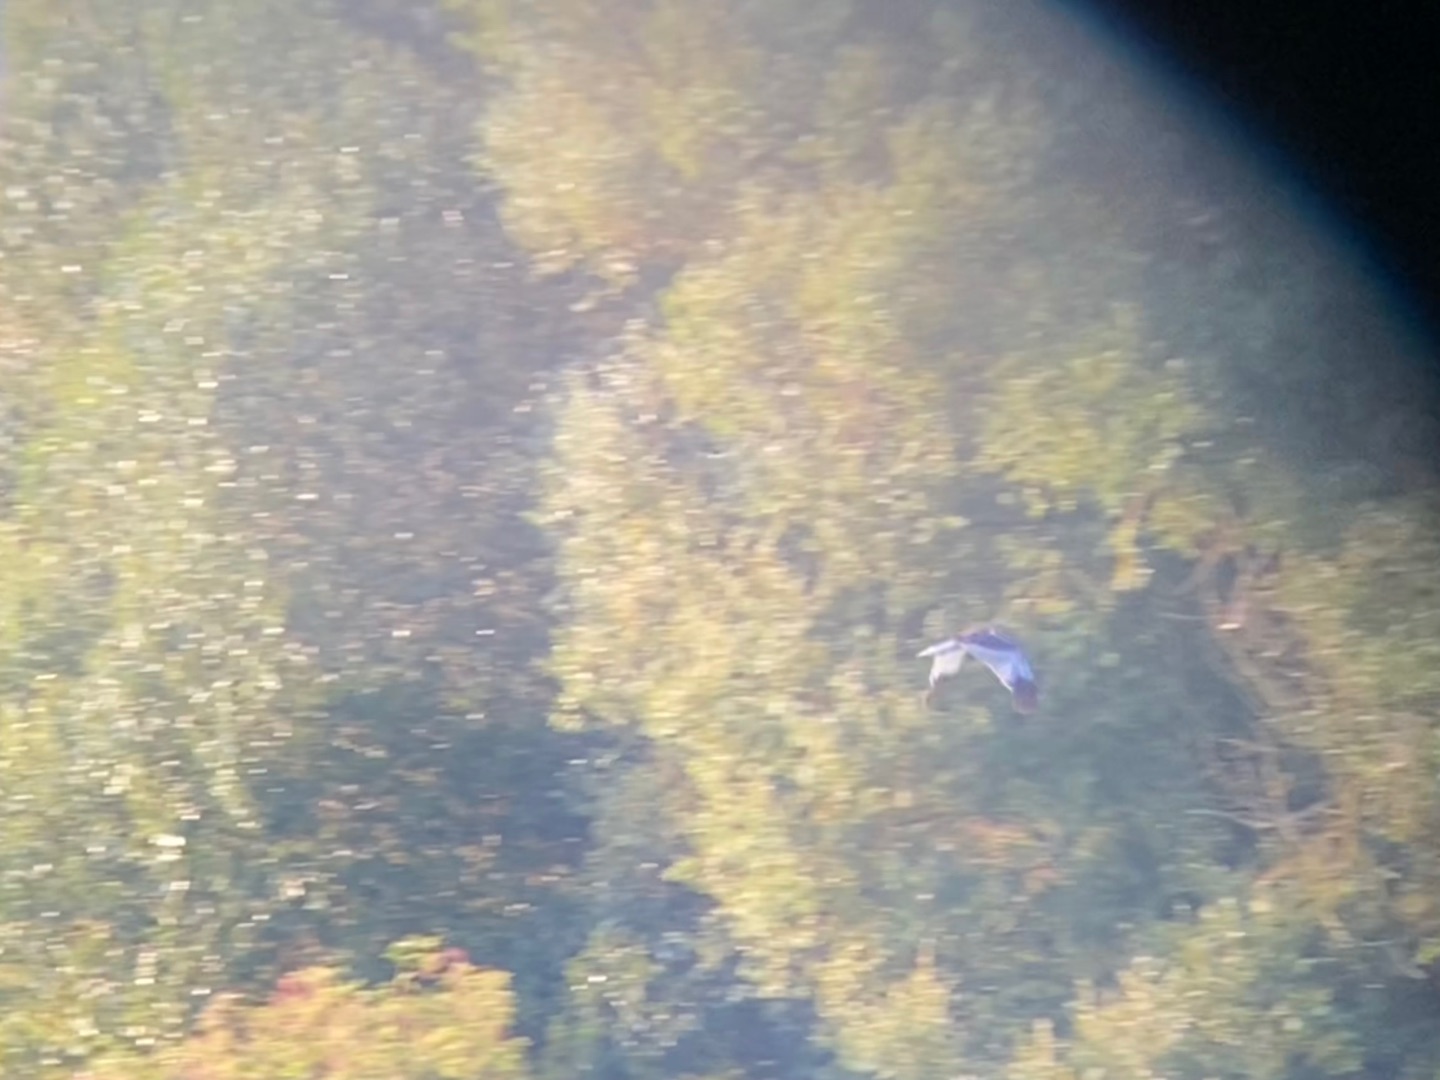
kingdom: Animalia
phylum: Chordata
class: Aves
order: Accipitriformes
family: Accipitridae
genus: Circus
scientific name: Circus aeruginosus
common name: Rørhøg
